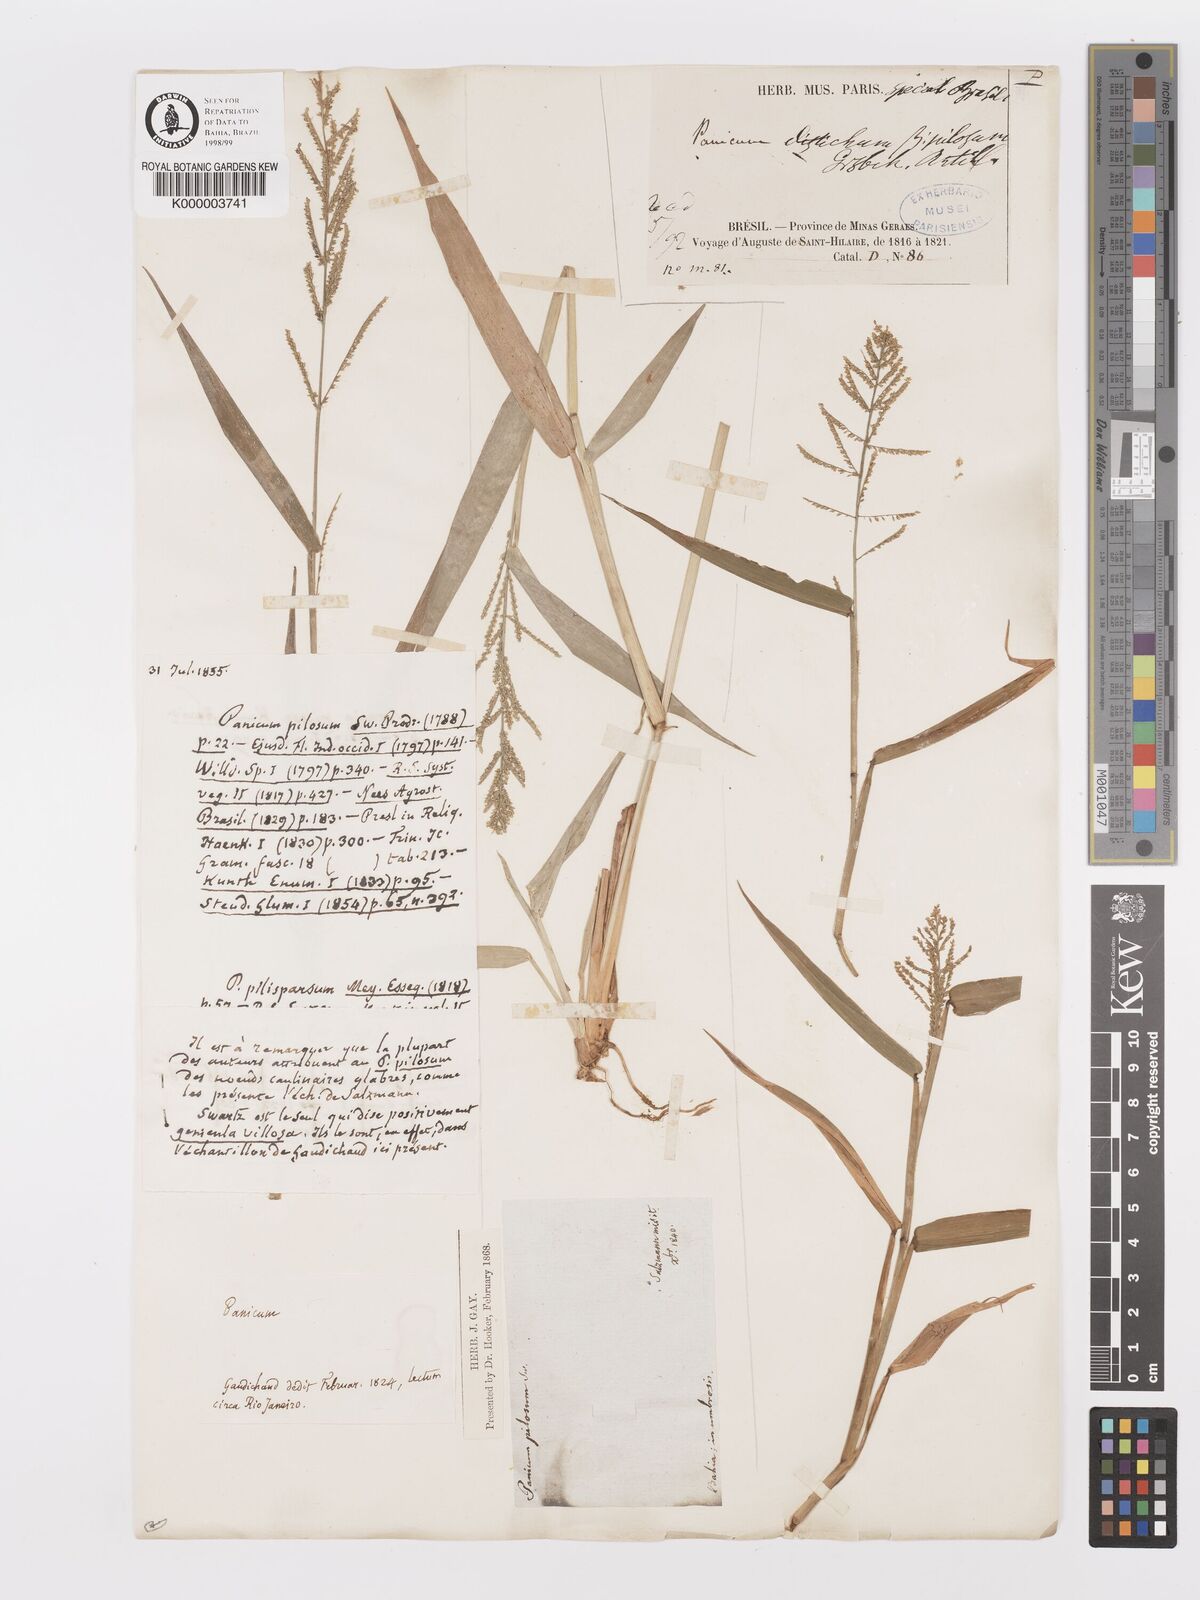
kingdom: Plantae
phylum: Tracheophyta
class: Liliopsida
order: Poales
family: Poaceae
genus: Rugoloa
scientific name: Rugoloa pilosa
